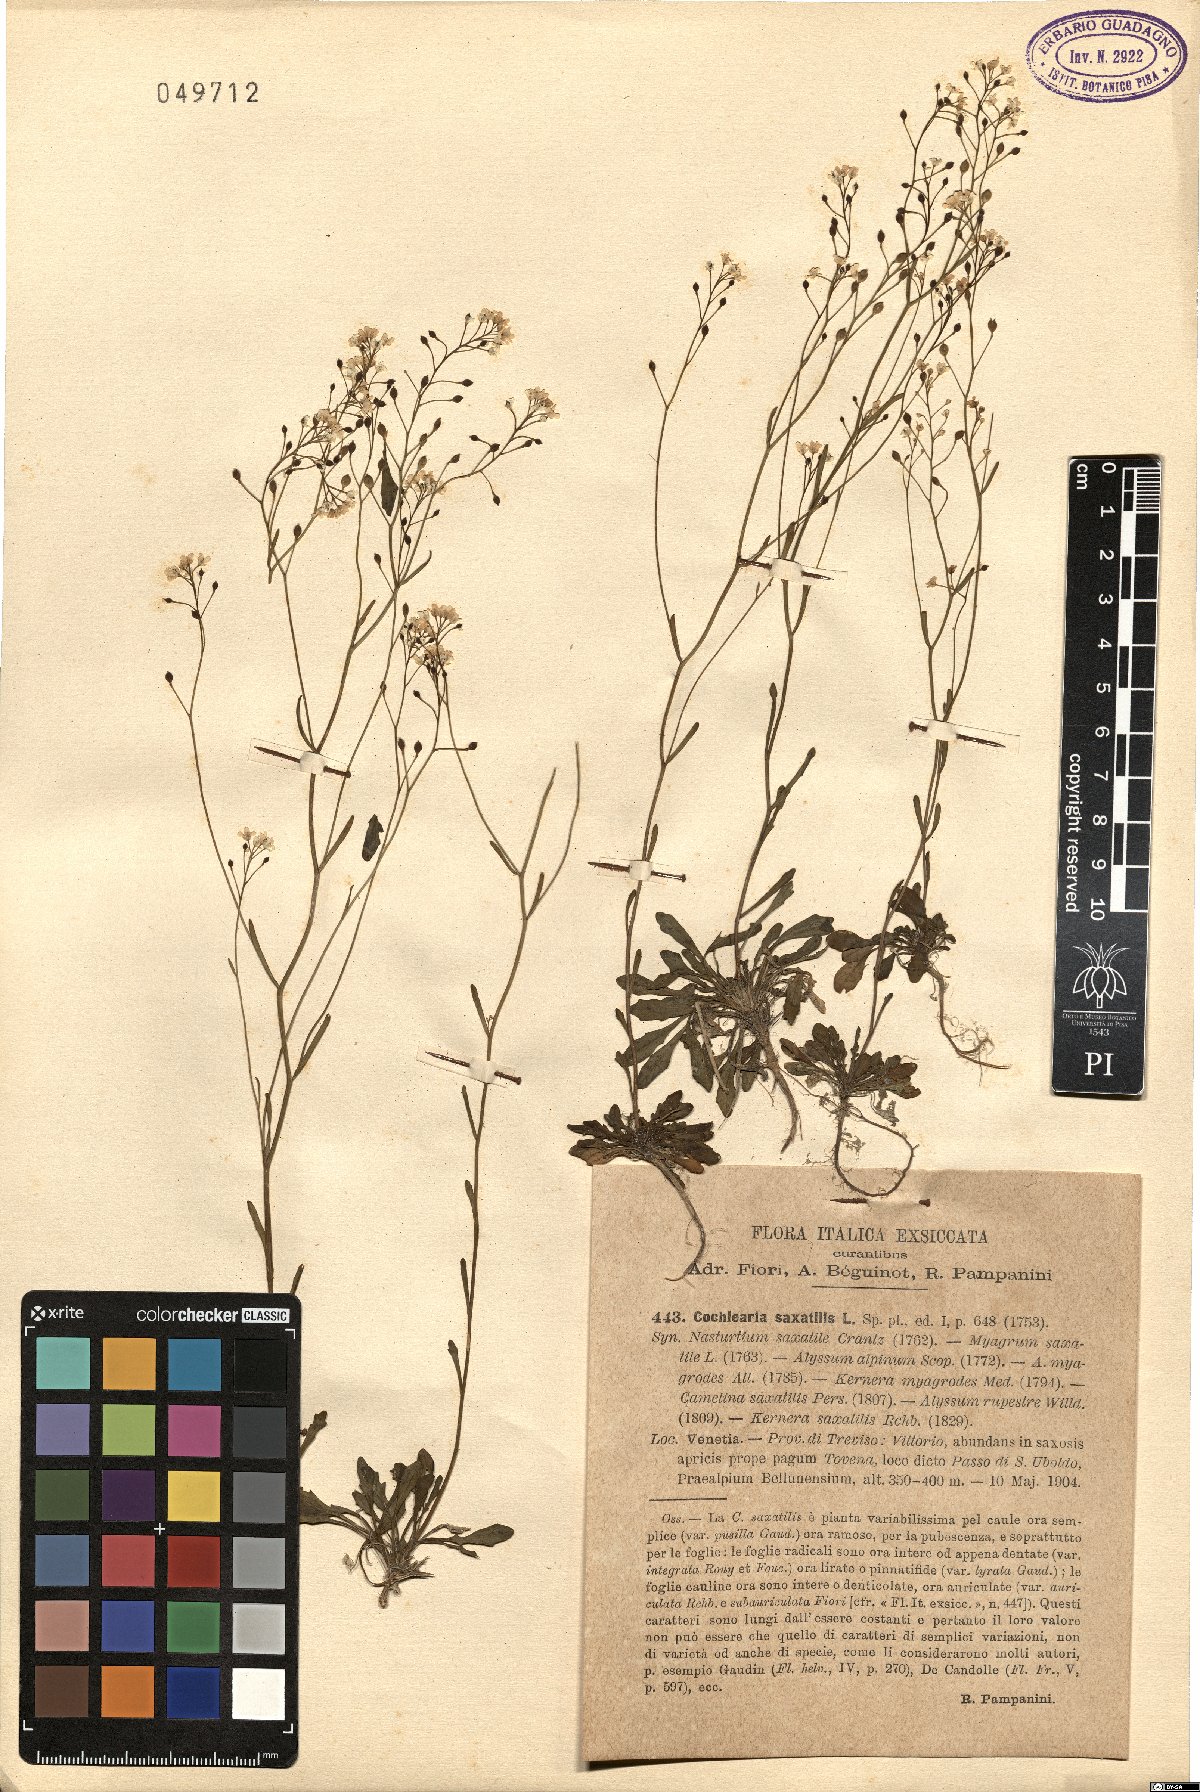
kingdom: Plantae
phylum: Tracheophyta
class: Magnoliopsida
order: Brassicales
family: Brassicaceae
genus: Kernera
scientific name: Kernera saxatilis
